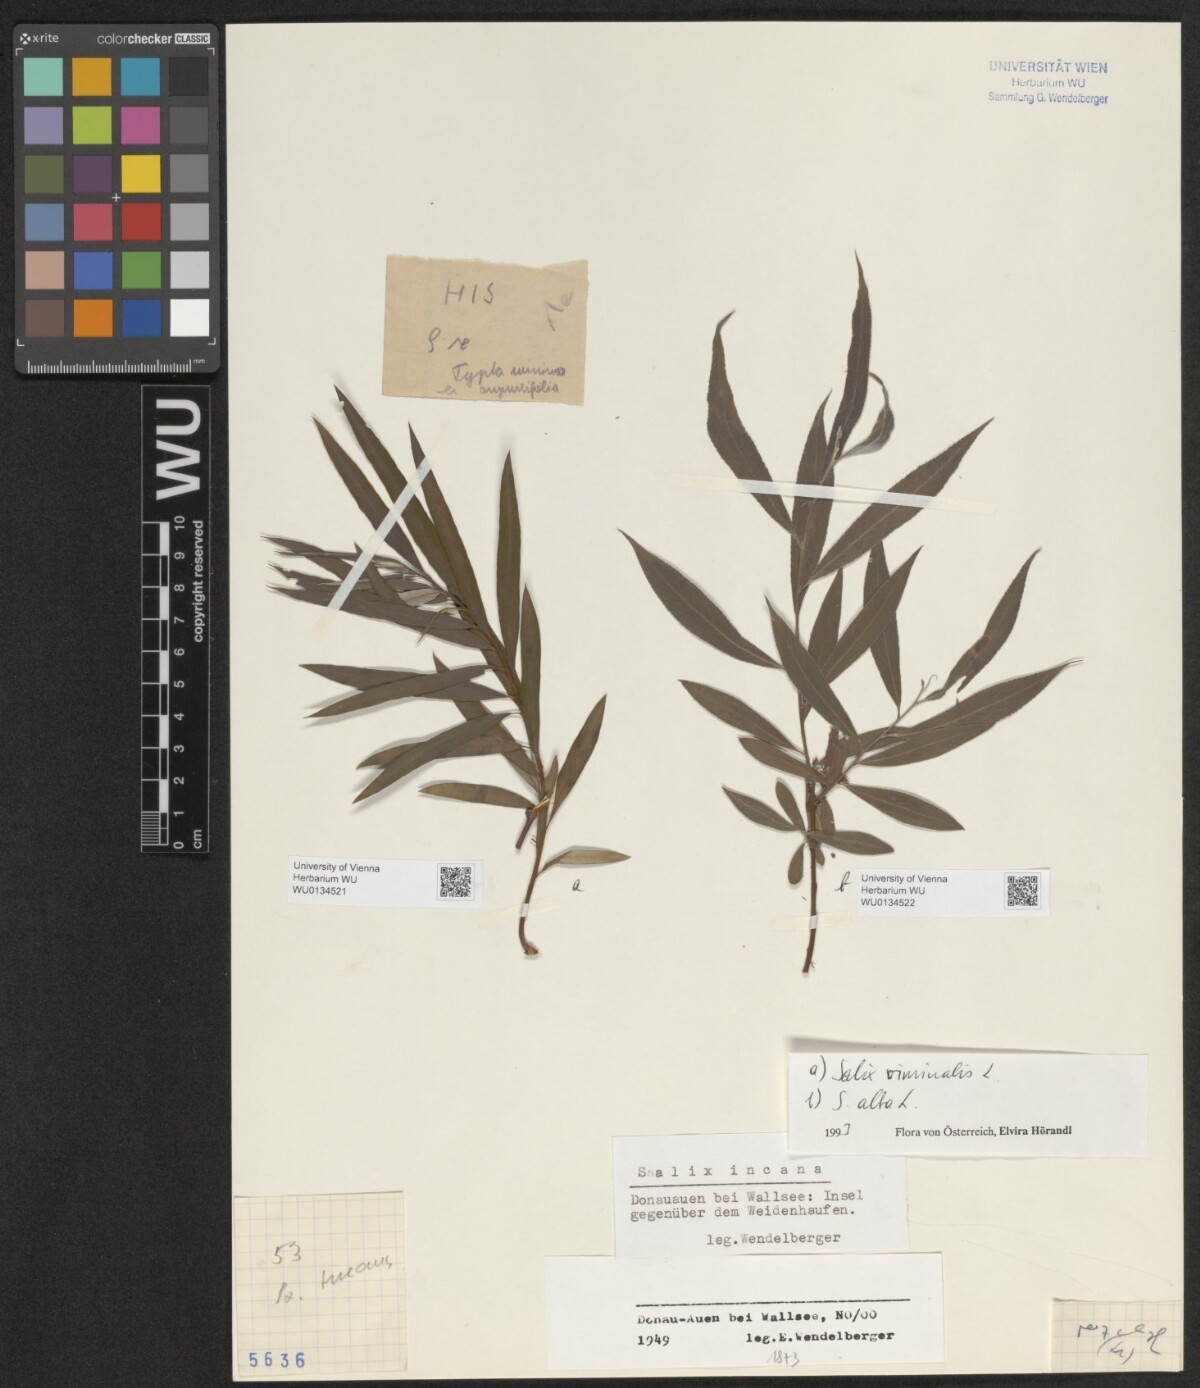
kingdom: Plantae
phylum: Tracheophyta
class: Magnoliopsida
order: Malpighiales
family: Salicaceae
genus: Salix
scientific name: Salix alba
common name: White willow
